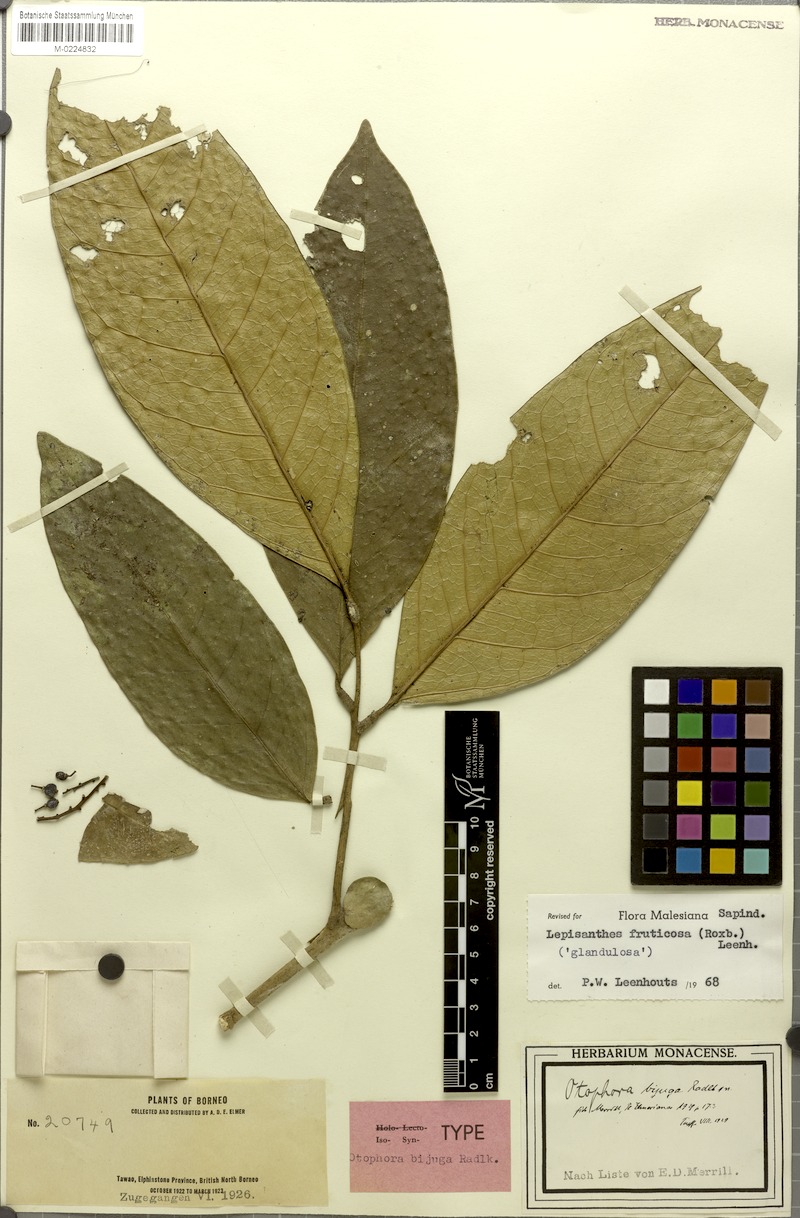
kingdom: Plantae
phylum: Tracheophyta
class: Magnoliopsida
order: Sapindales
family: Sapindaceae
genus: Lepisanthes
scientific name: Lepisanthes fruticosa
